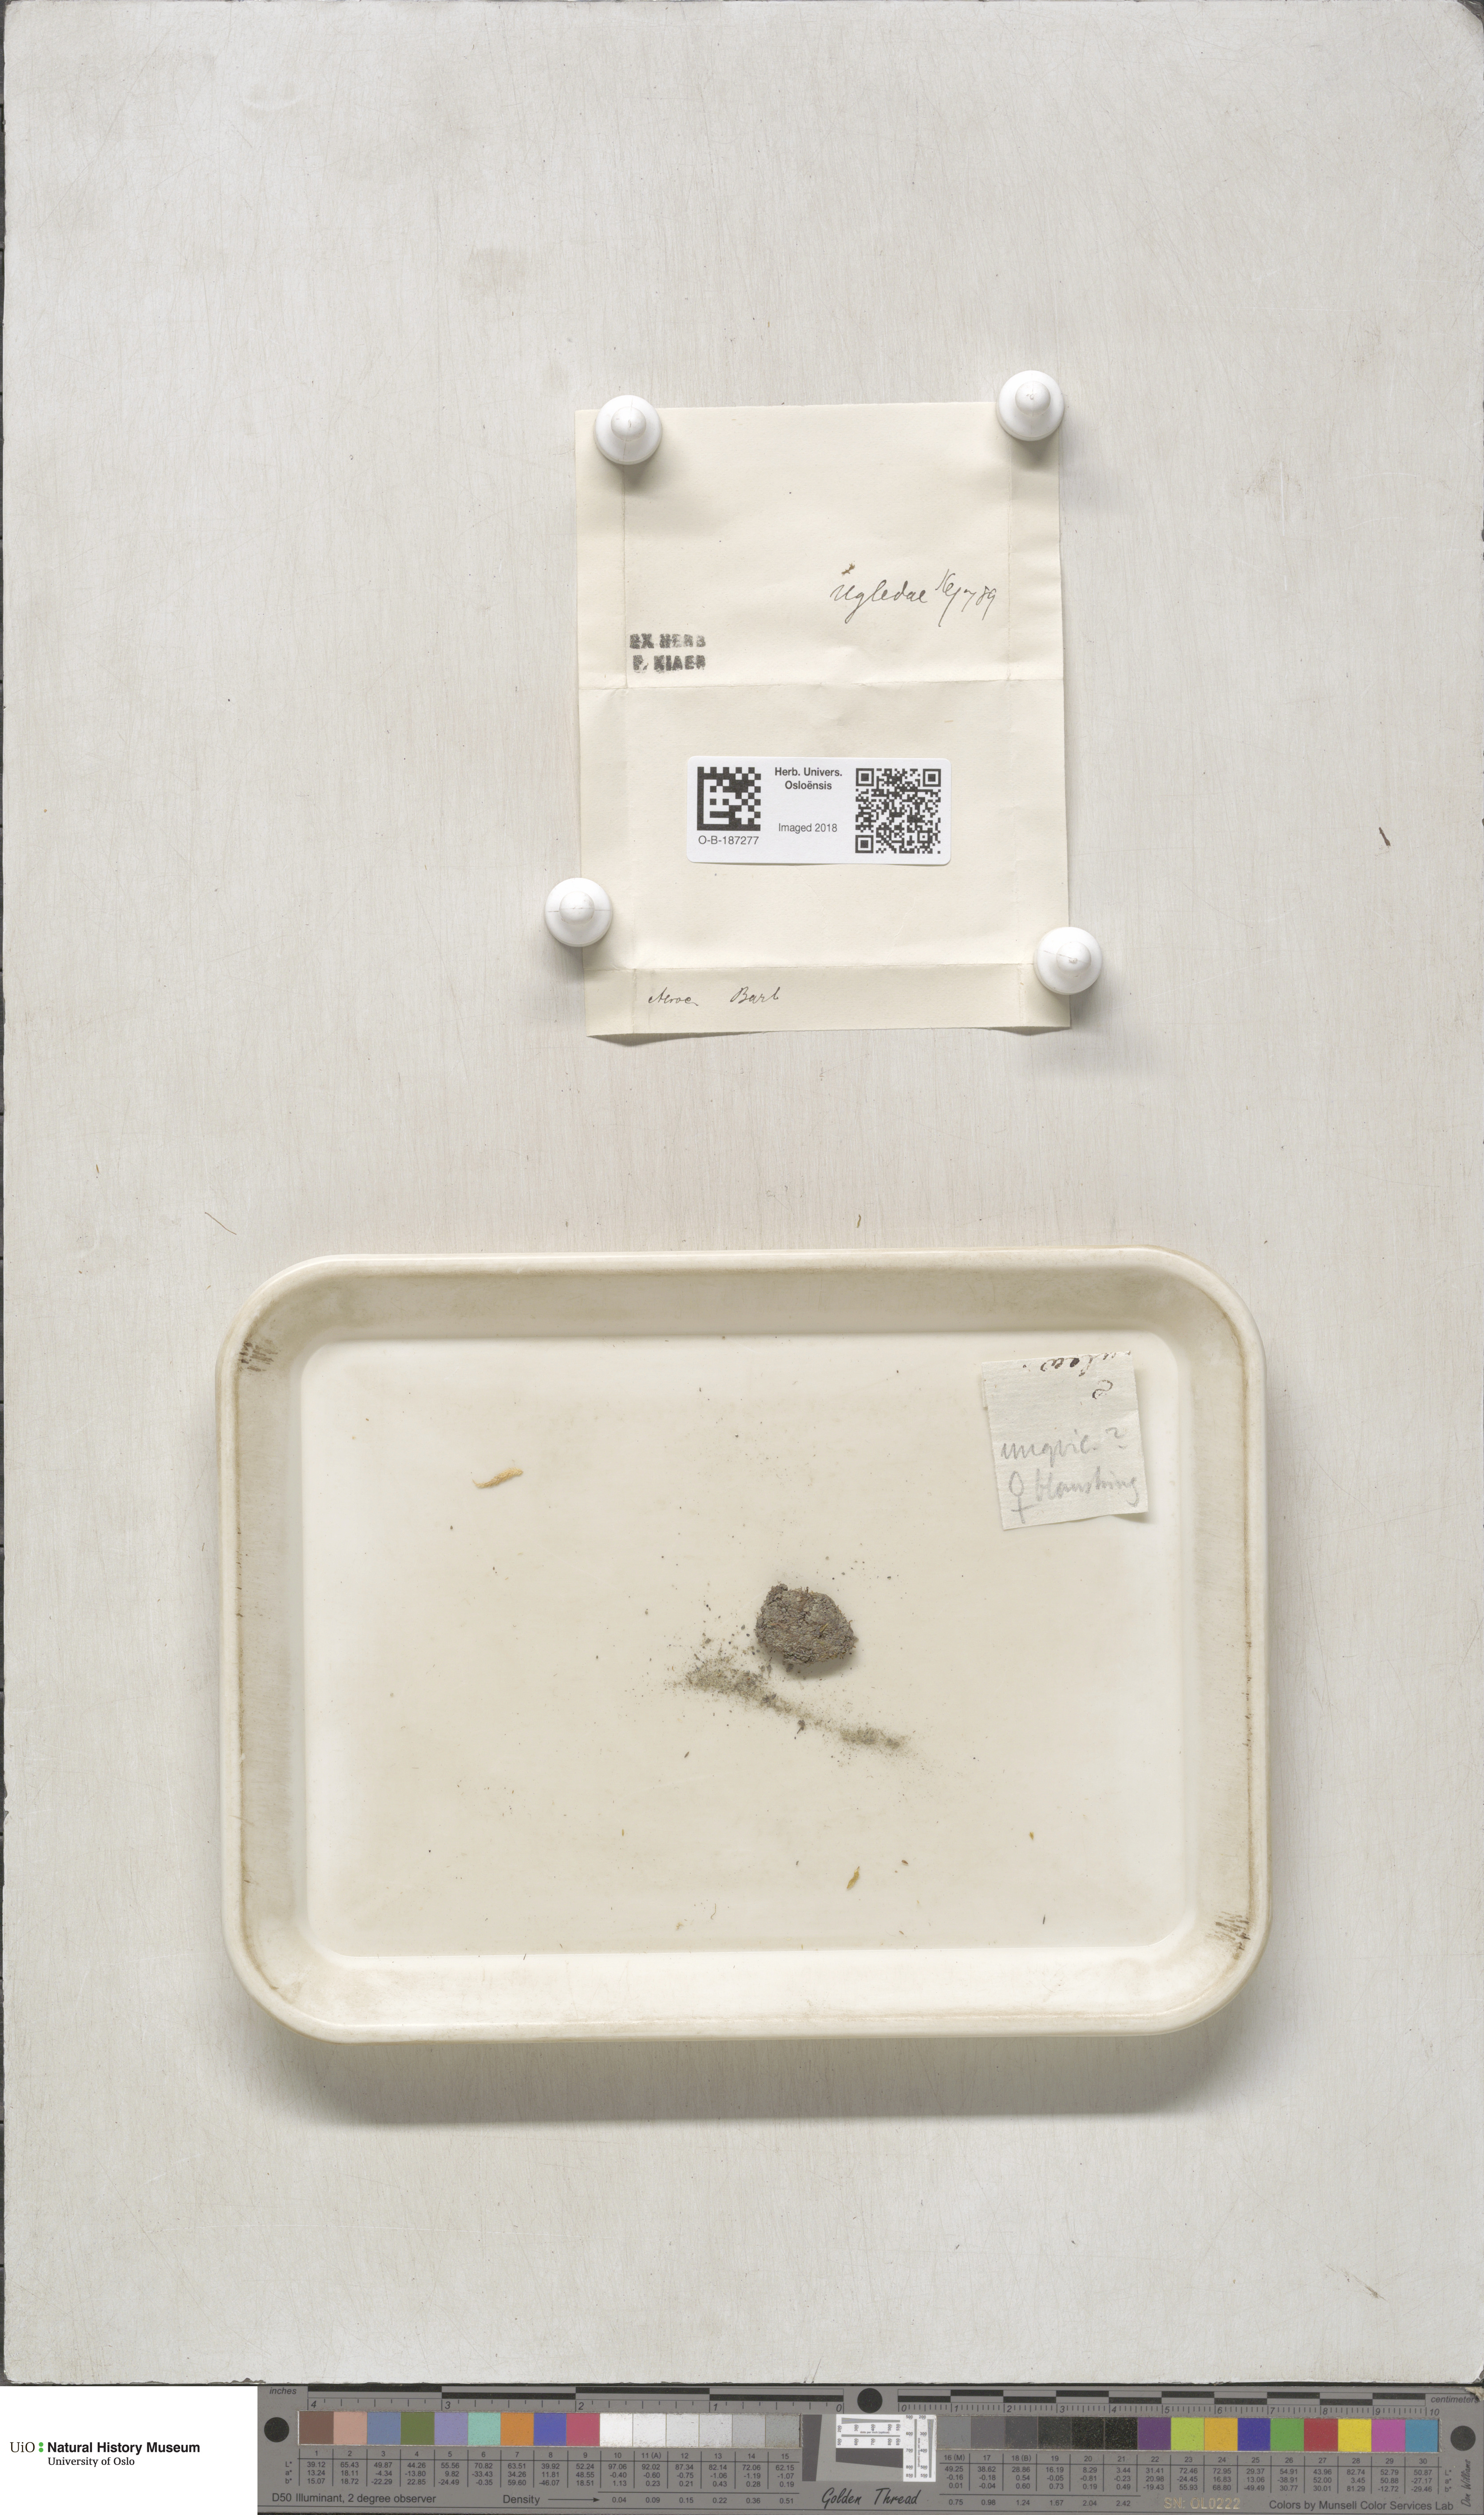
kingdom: Plantae
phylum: Bryophyta
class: Bryopsida
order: Pottiales
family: Pottiaceae
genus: Syntrichia
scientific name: Syntrichia norvegica
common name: Norway screw moss
